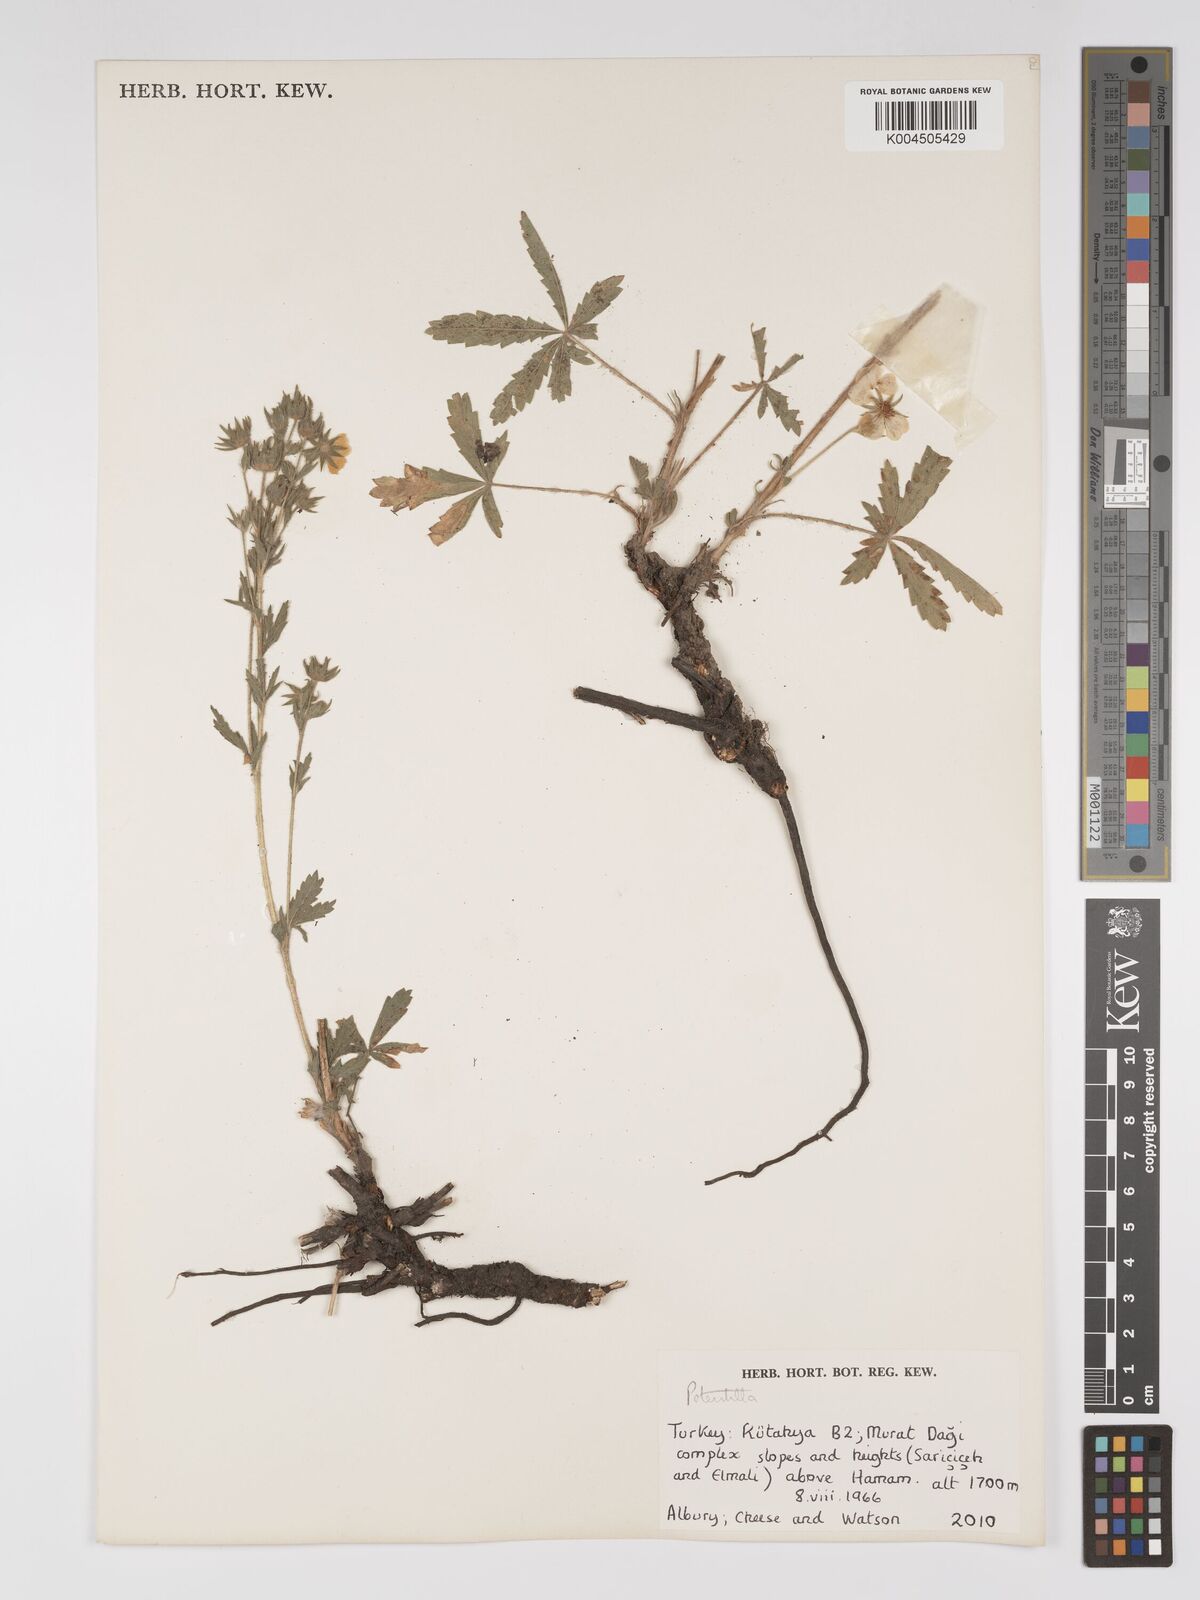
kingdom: Plantae
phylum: Tracheophyta
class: Magnoliopsida
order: Rosales
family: Rosaceae
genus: Potentilla
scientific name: Potentilla
